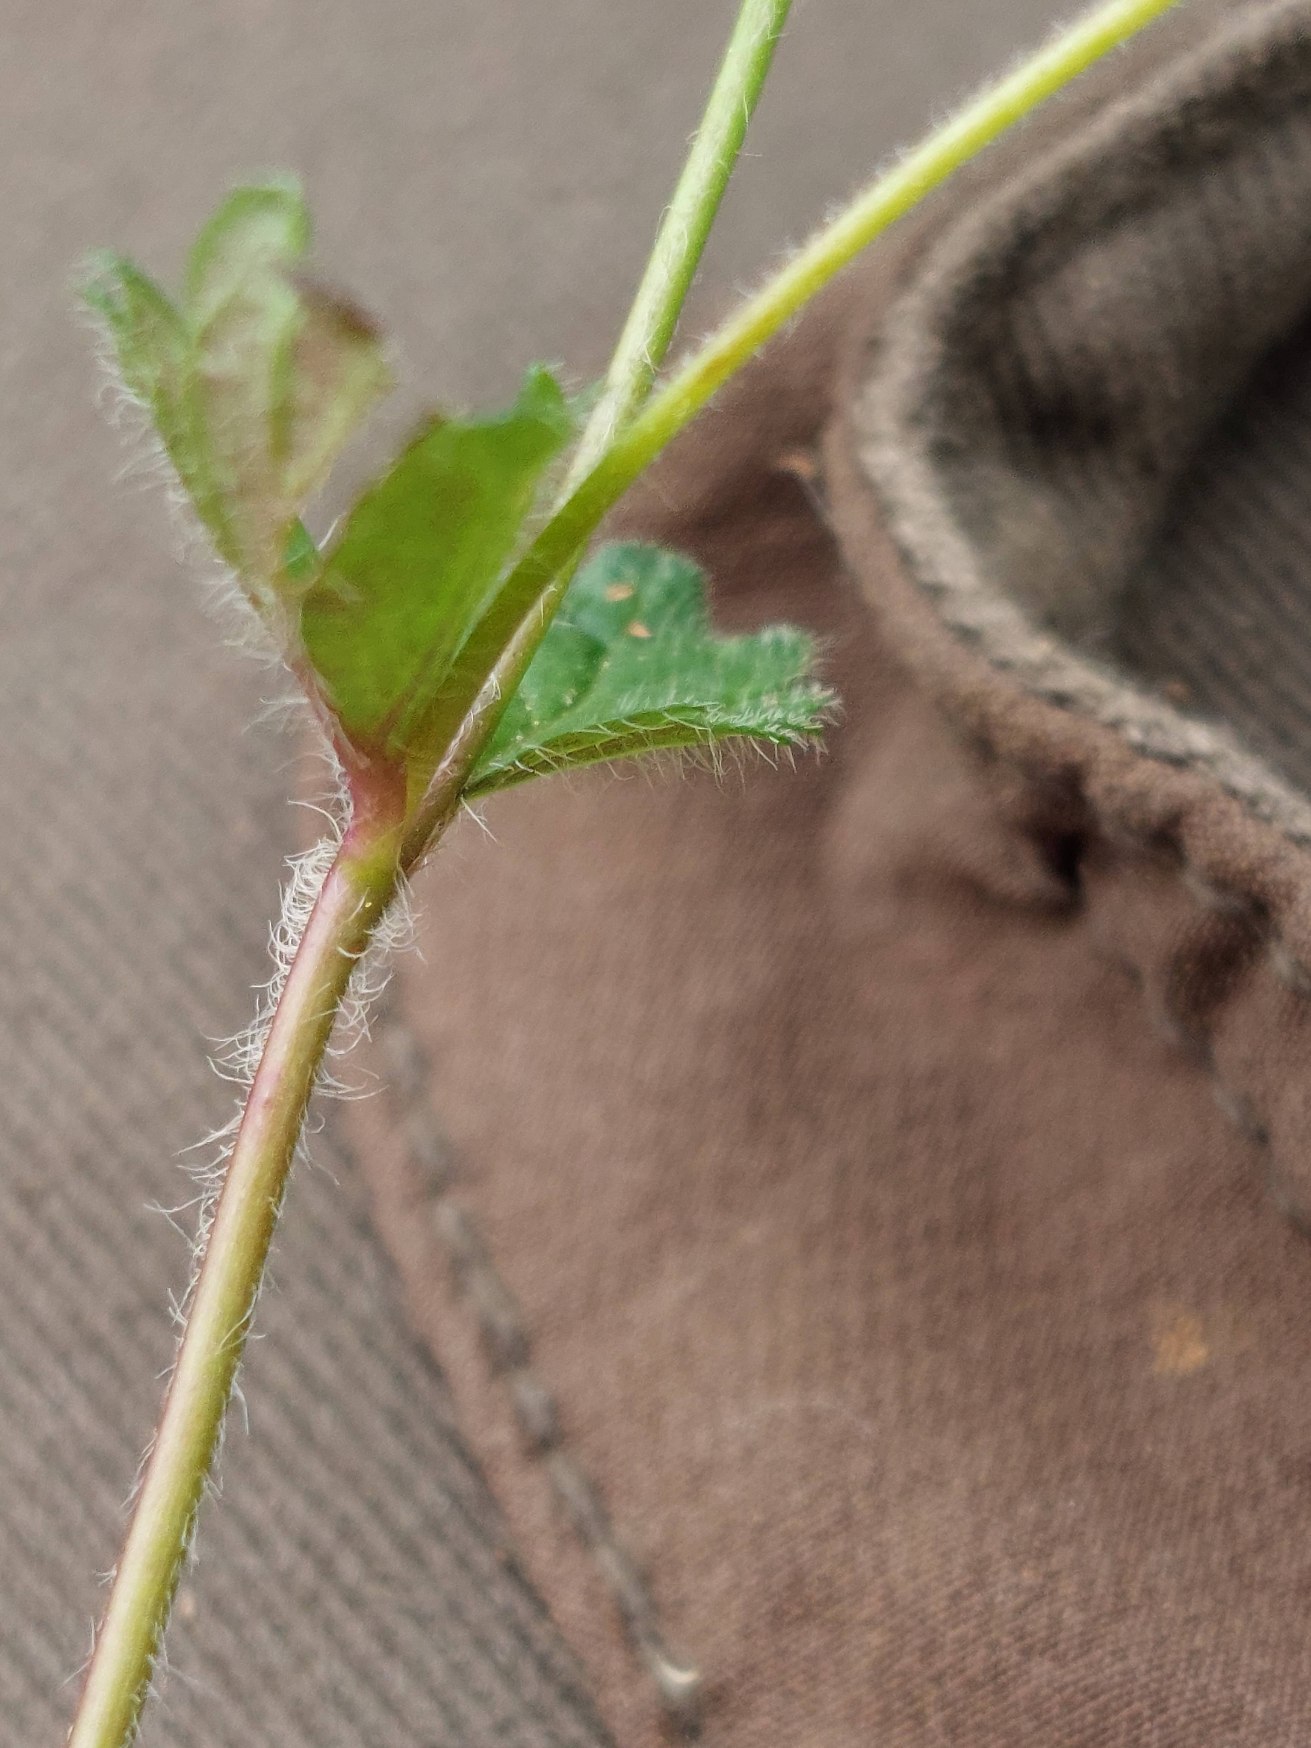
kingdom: Plantae
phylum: Tracheophyta
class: Magnoliopsida
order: Lamiales
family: Plantaginaceae
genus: Veronica
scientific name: Veronica chamaedrys
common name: Tveskægget ærenpris
